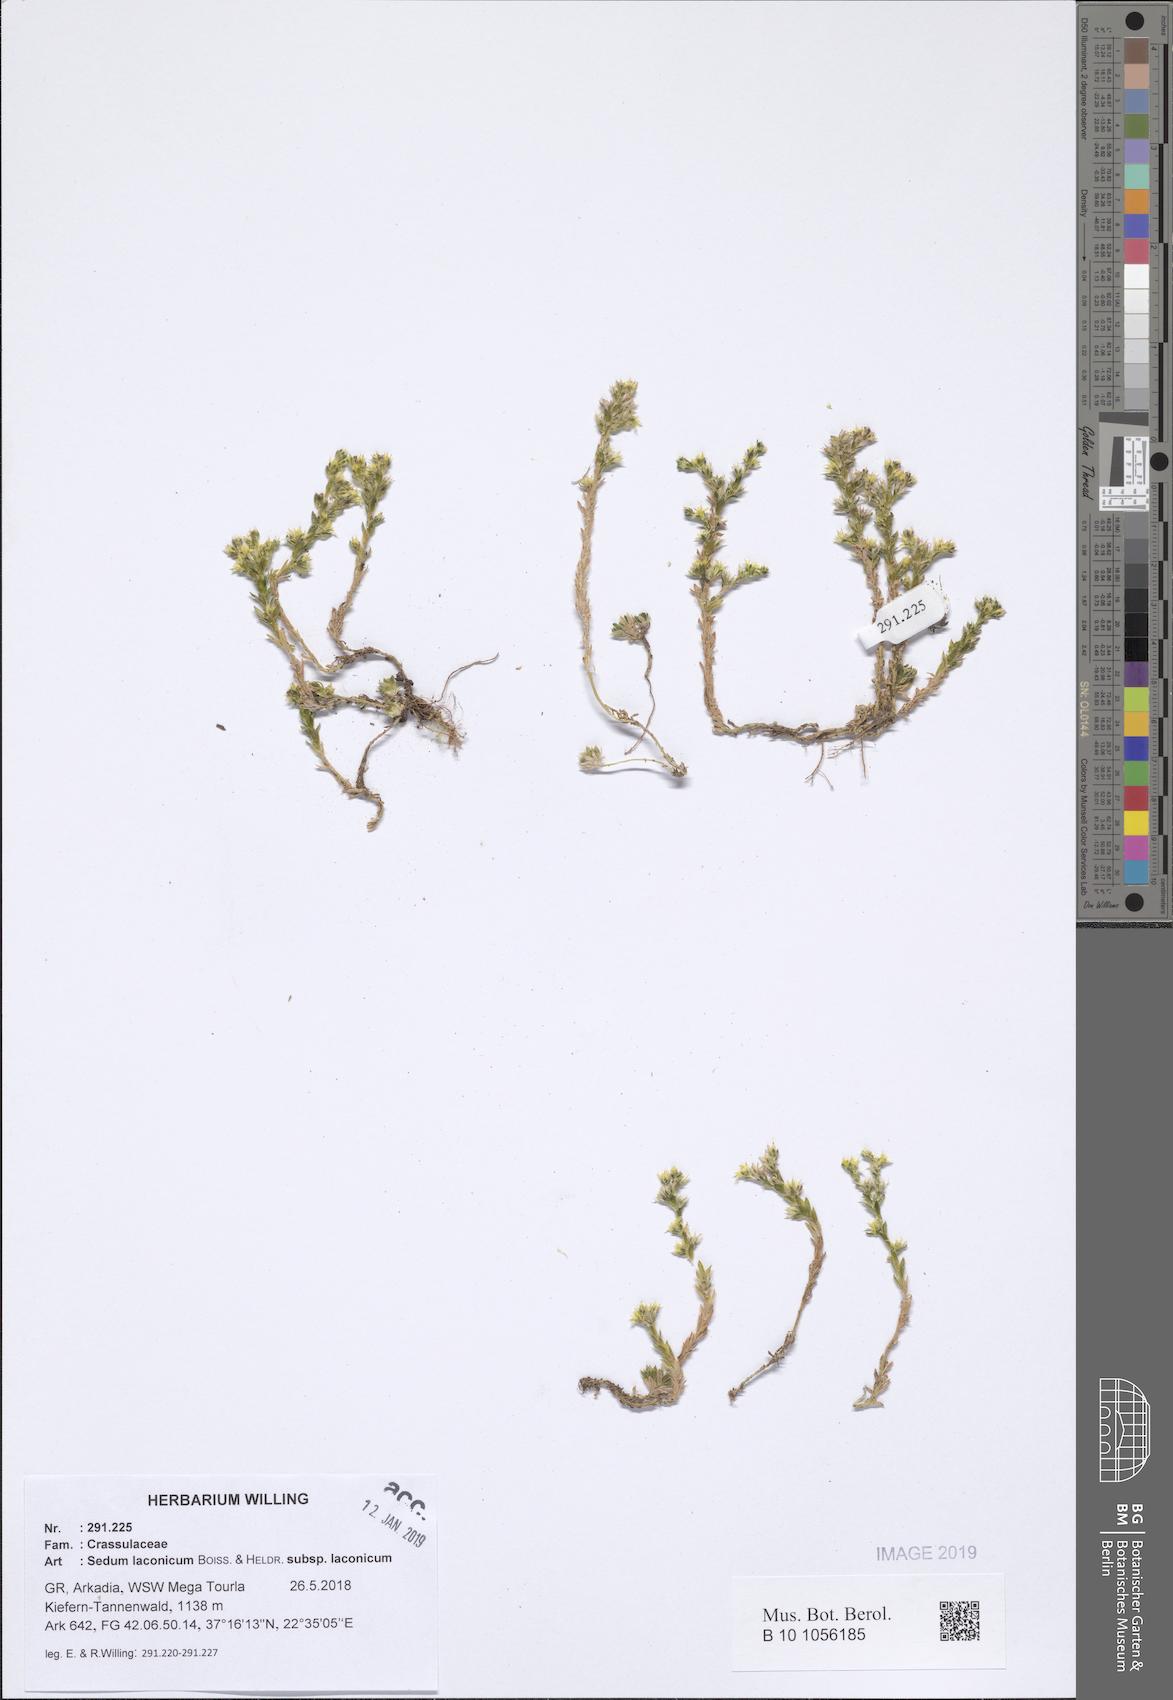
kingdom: Plantae
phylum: Tracheophyta
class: Magnoliopsida
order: Saxifragales
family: Crassulaceae
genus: Sedum
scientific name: Sedum laconicum
